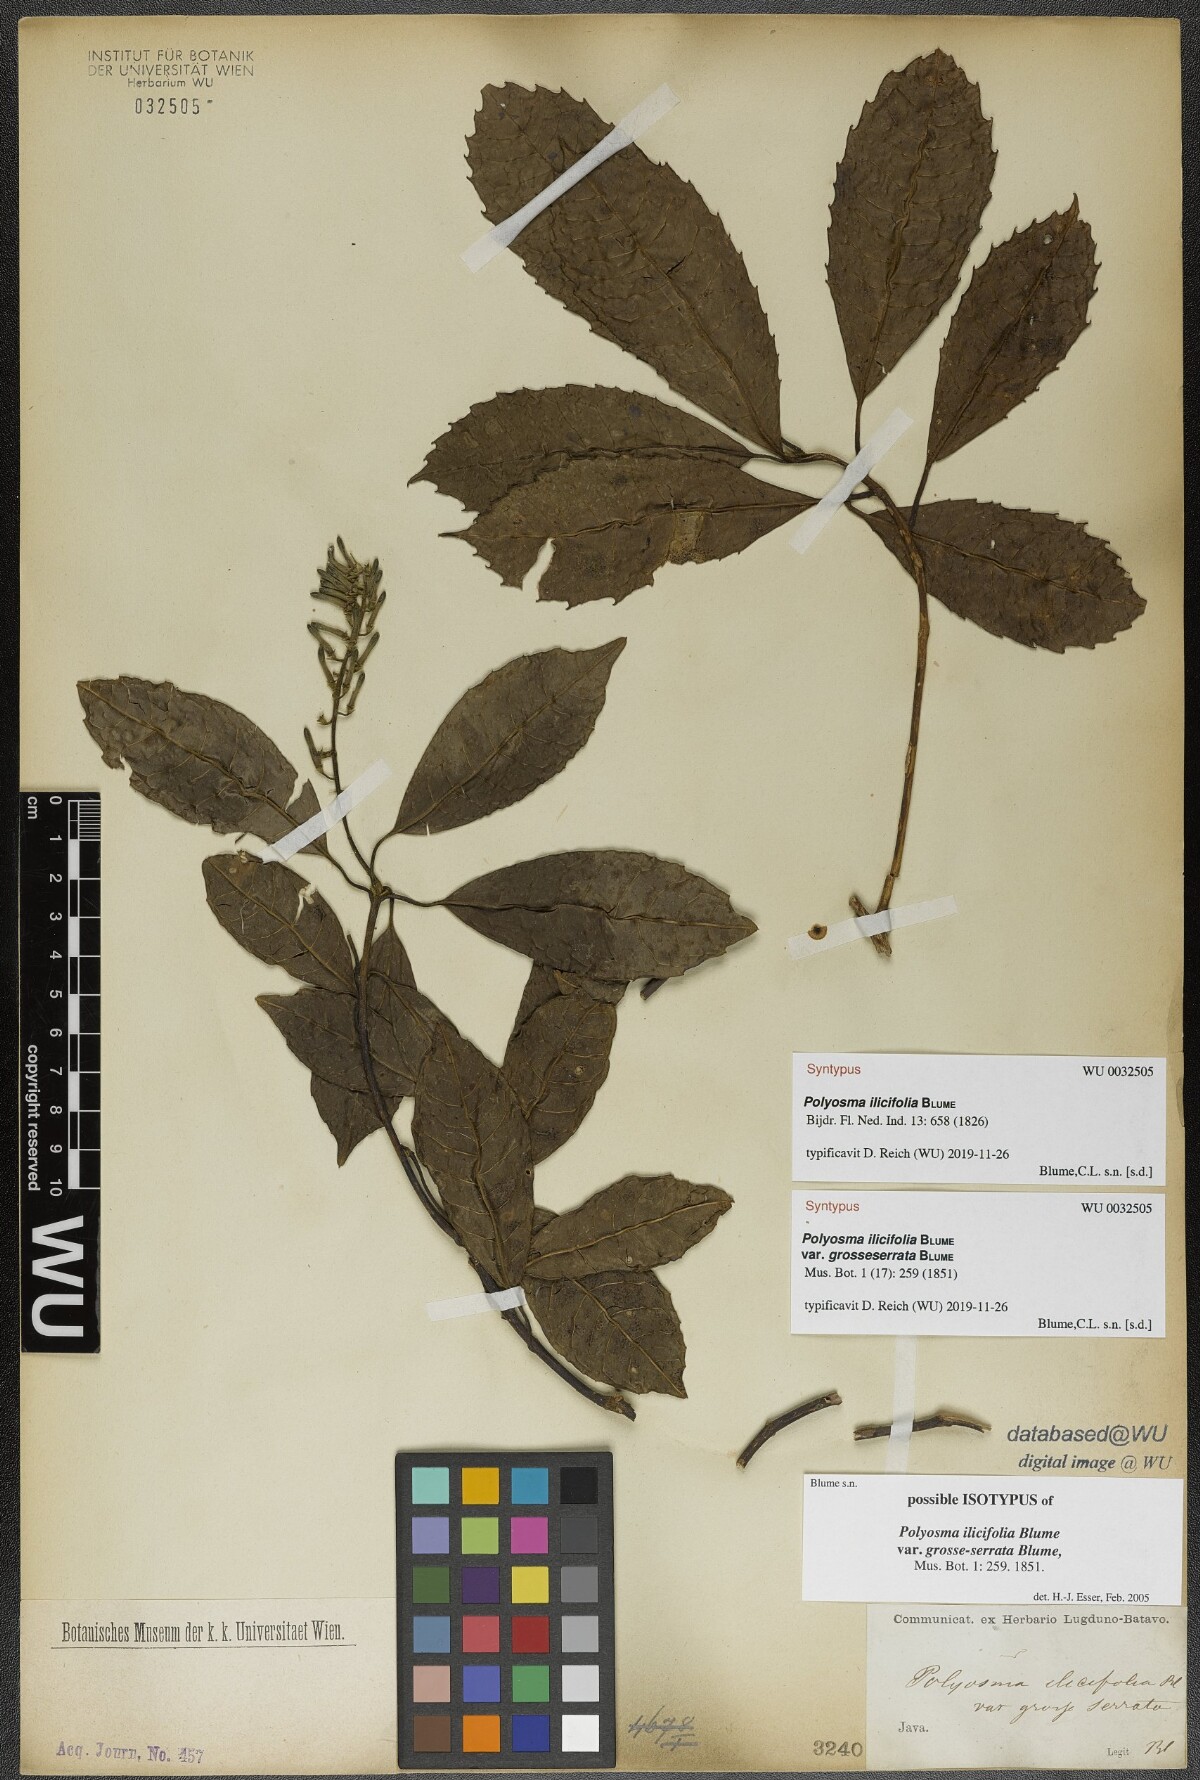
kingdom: Plantae
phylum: Tracheophyta
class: Magnoliopsida
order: Escalloniales
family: Escalloniaceae
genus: Polyosma
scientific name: Polyosma ilicifolia
